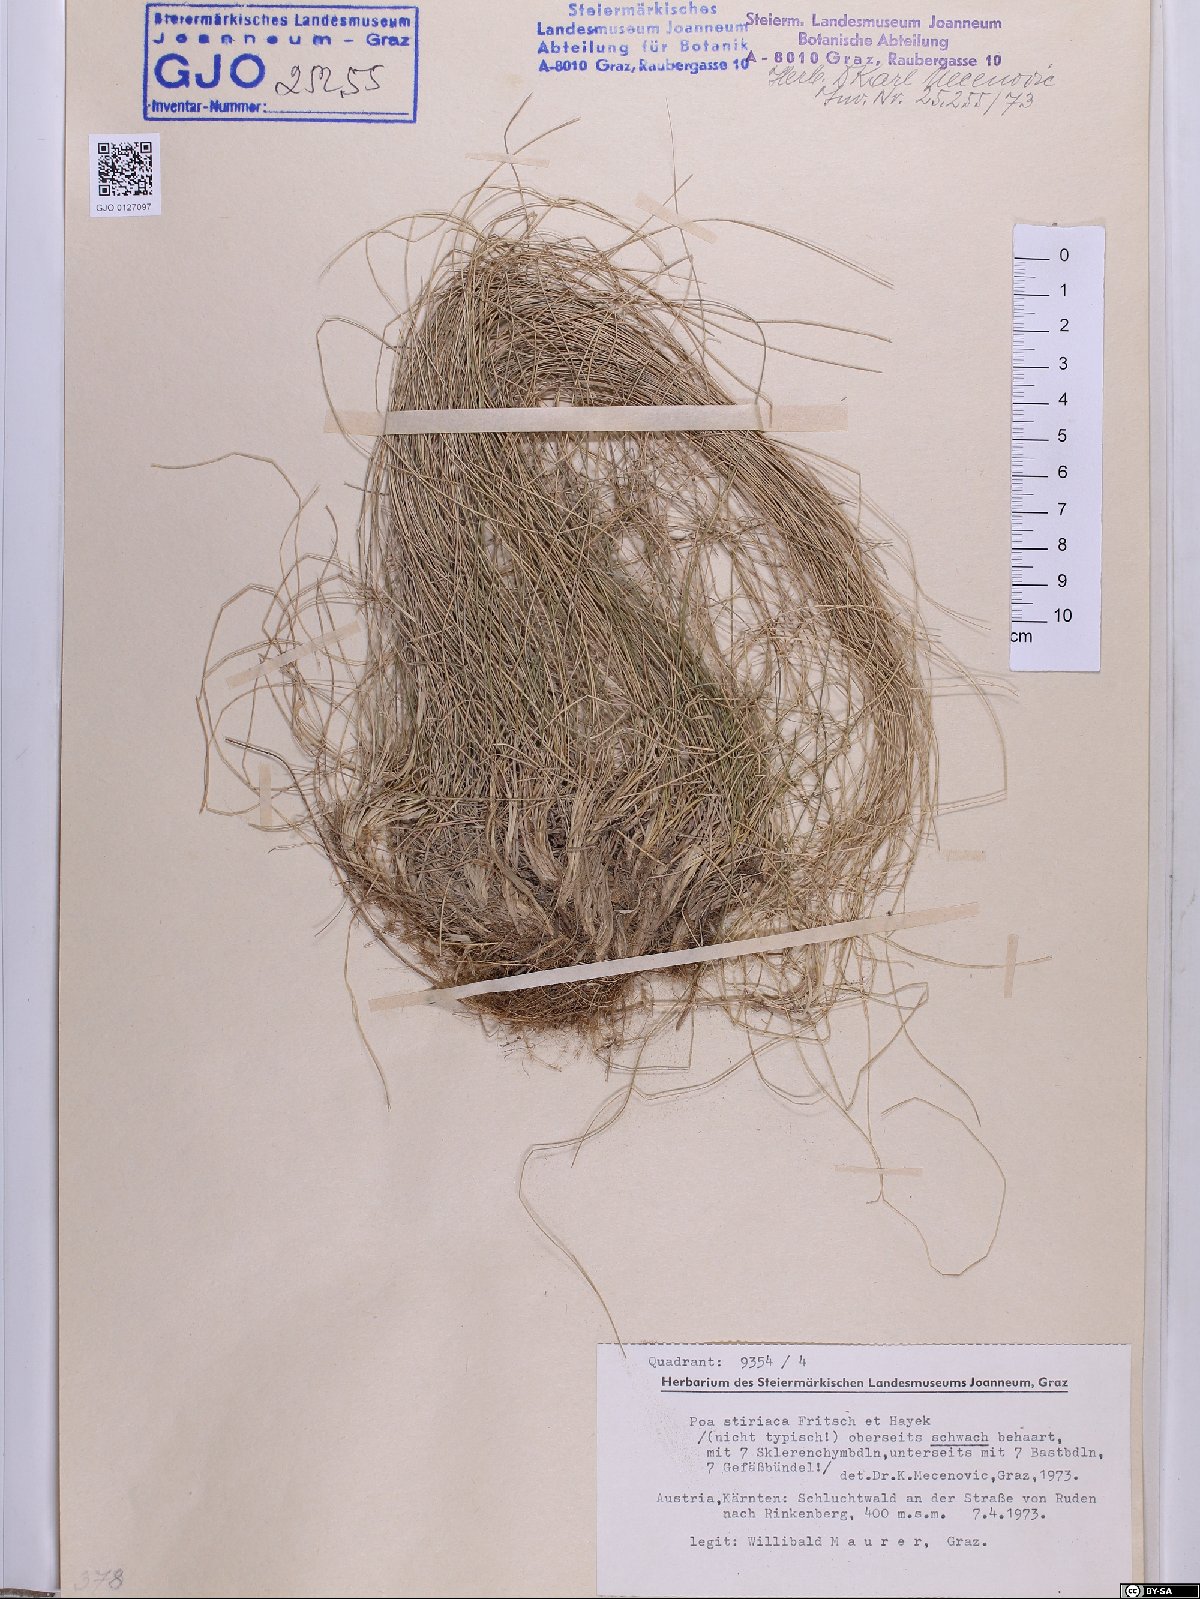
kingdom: Plantae
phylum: Tracheophyta
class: Liliopsida
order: Poales
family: Poaceae
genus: Poa
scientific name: Poa stiriaca
